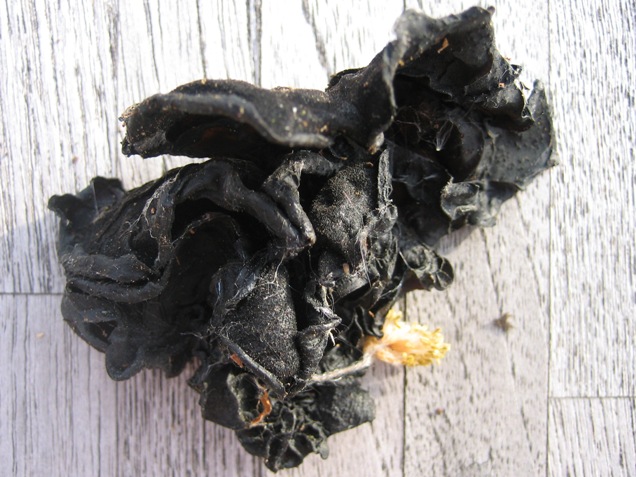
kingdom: Fungi
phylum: Basidiomycota
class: Agaricomycetes
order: Auriculariales
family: Auriculariaceae
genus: Exidia
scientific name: Exidia glandulosa
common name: ege-bævretop
